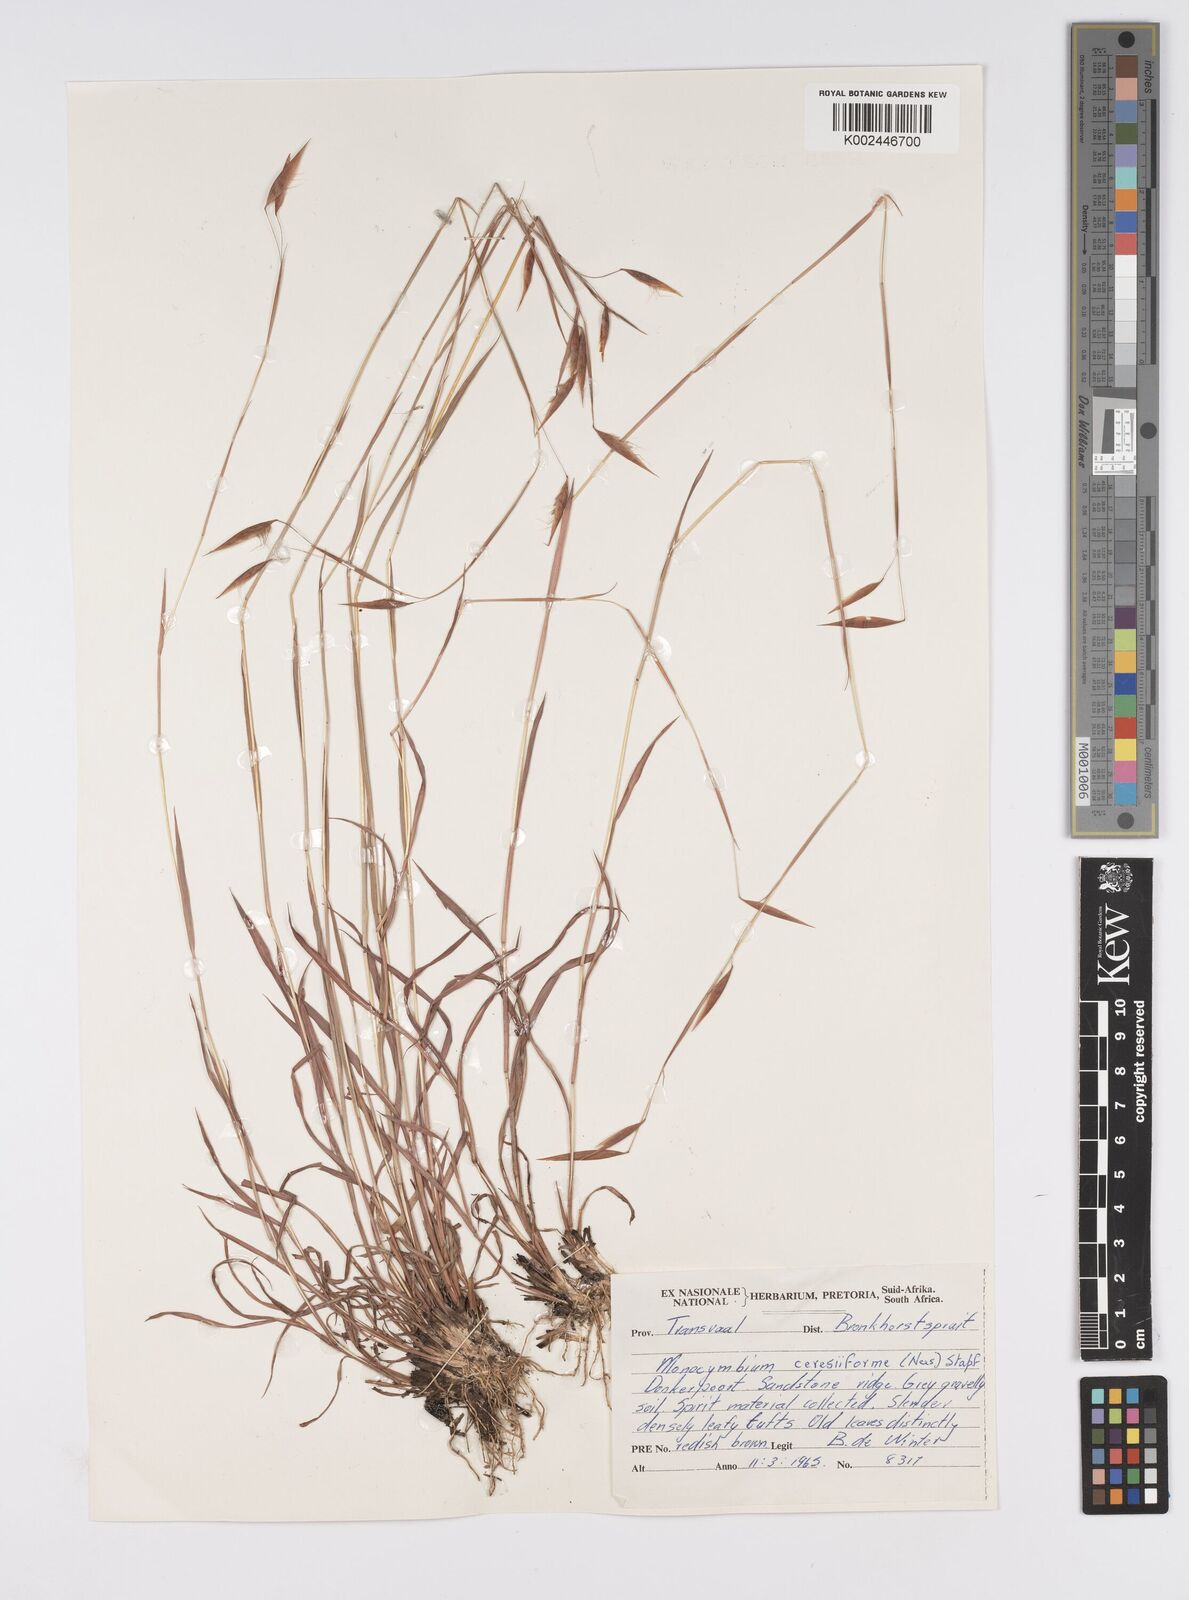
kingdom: Plantae
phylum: Tracheophyta
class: Liliopsida
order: Poales
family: Poaceae
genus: Monocymbium
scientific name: Monocymbium ceresiiforme
